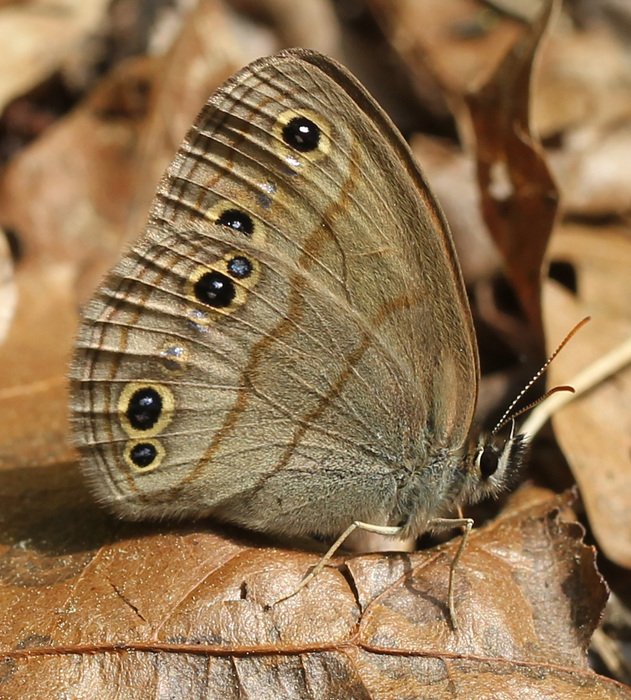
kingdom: Animalia
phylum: Arthropoda
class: Insecta
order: Lepidoptera
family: Nymphalidae
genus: Euptychia
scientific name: Euptychia cymela
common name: Little Wood Satyr
